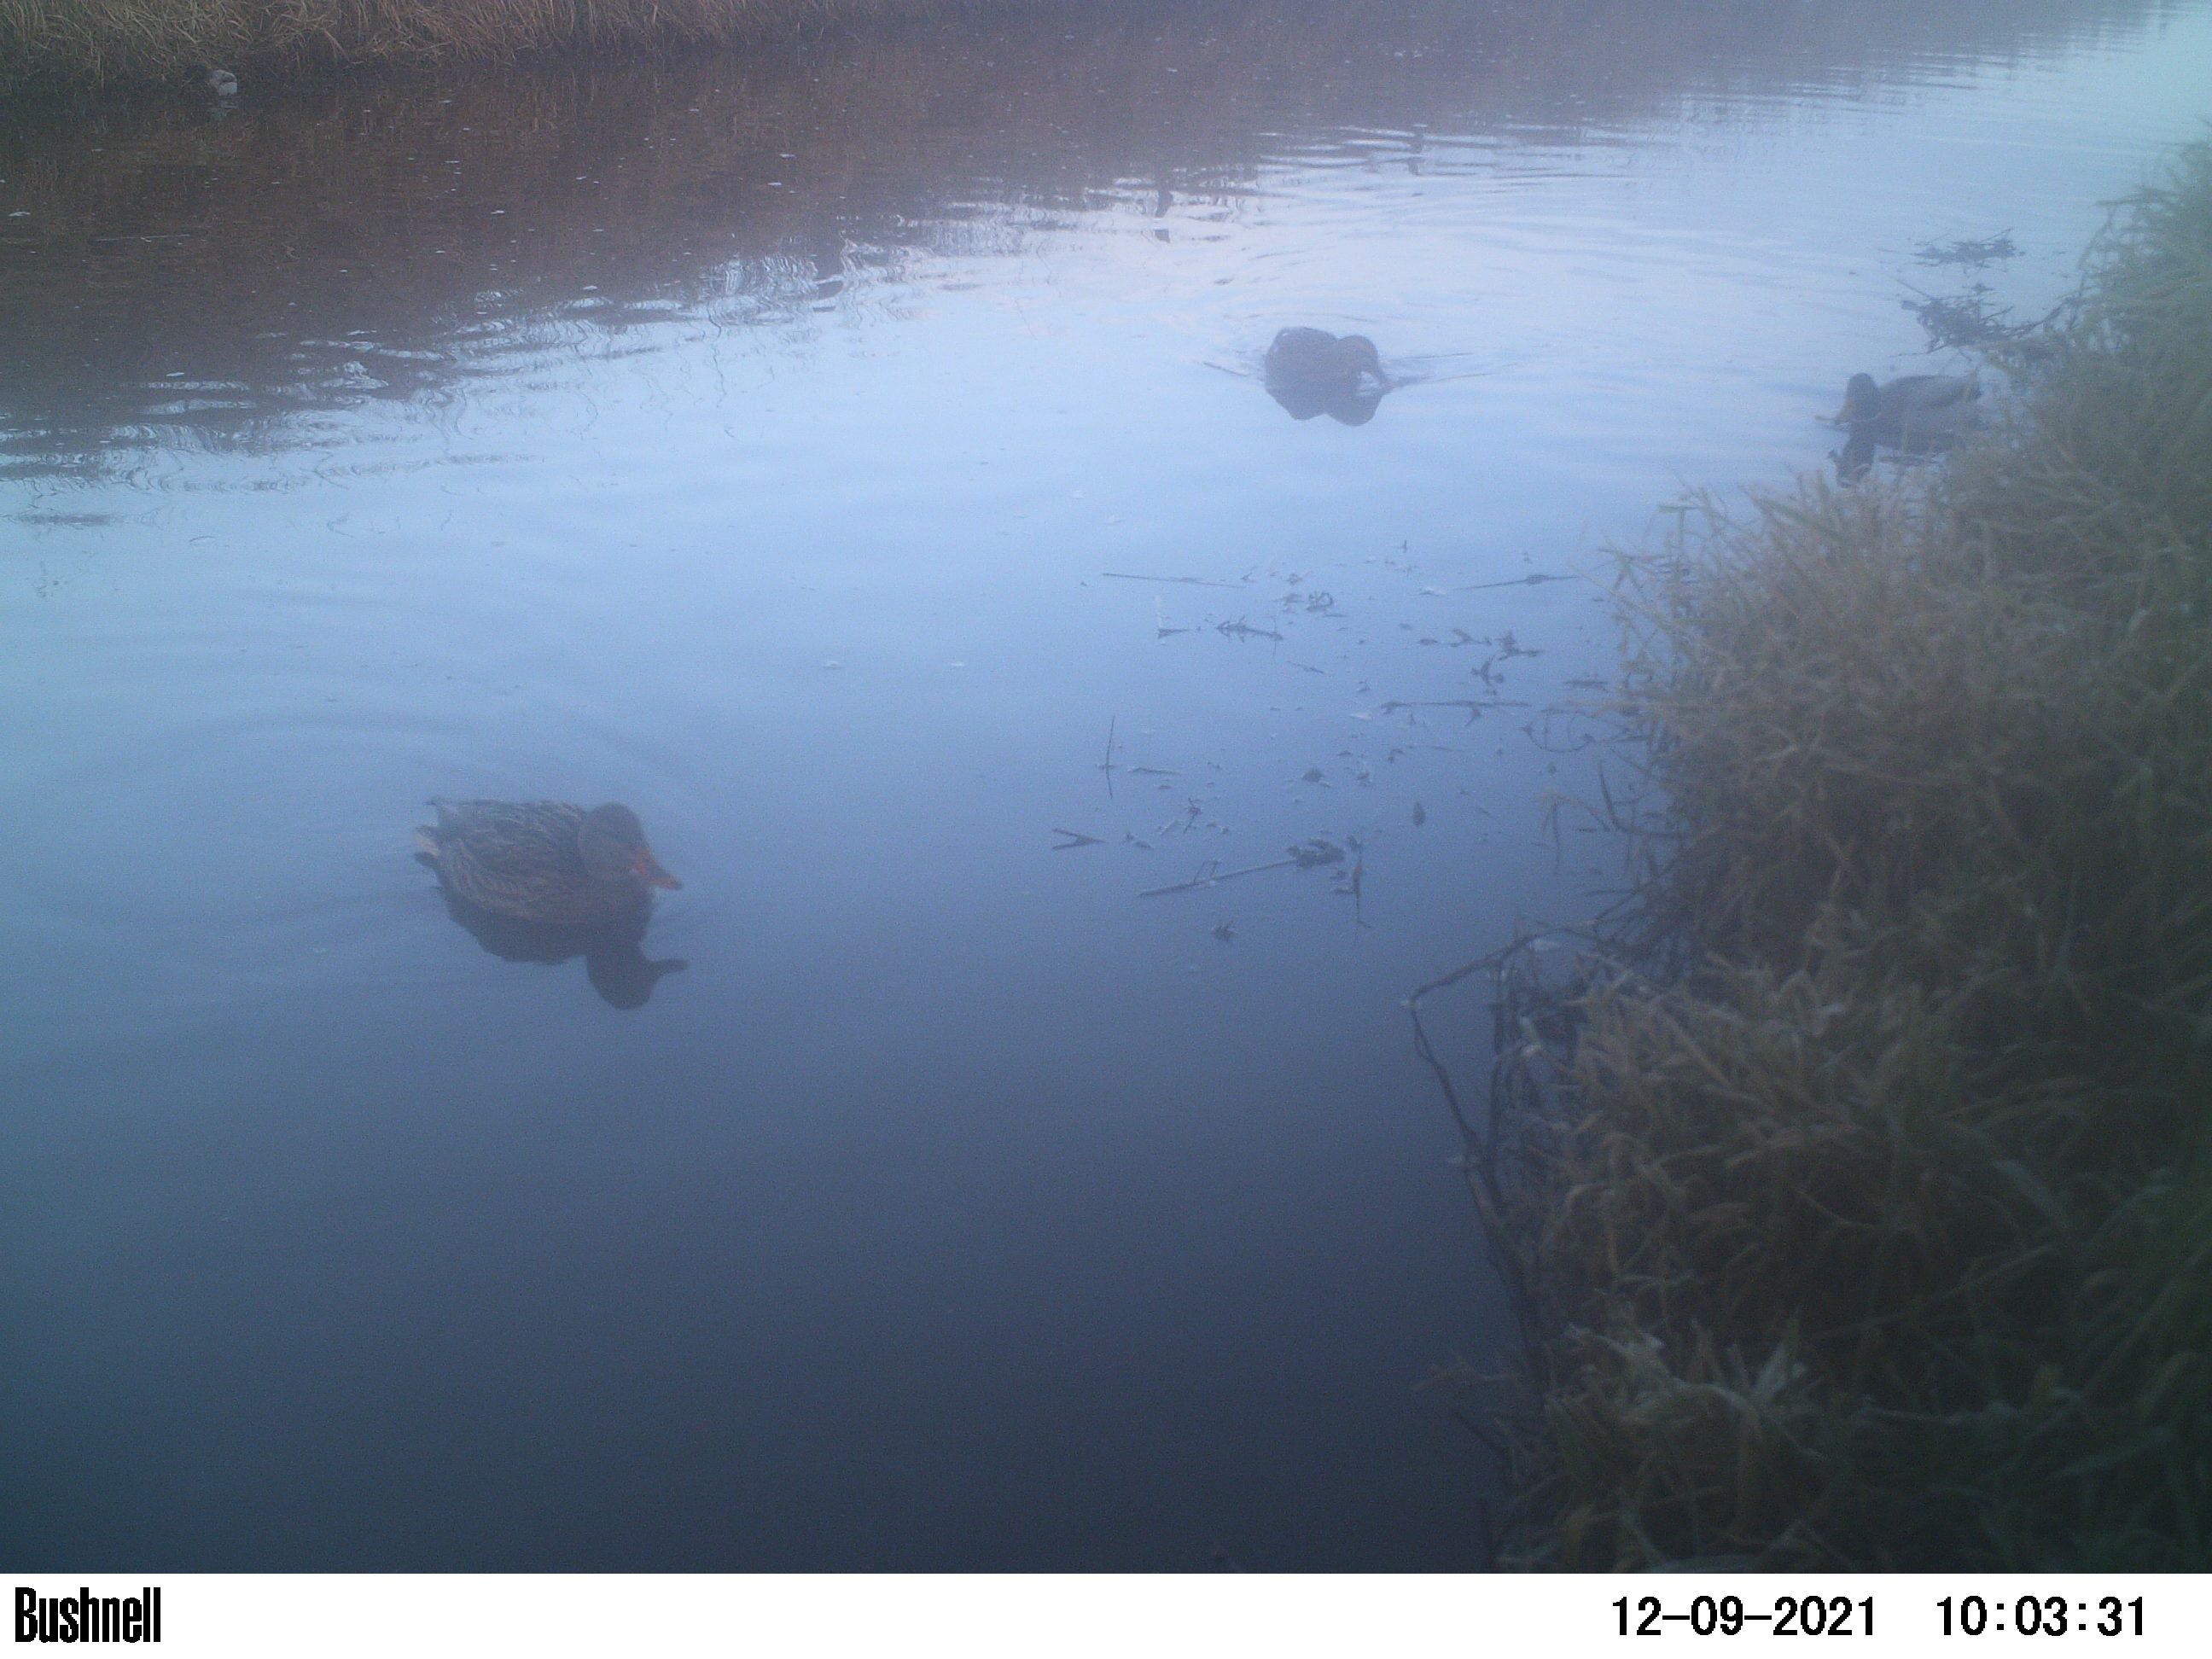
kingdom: Animalia
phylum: Chordata
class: Aves
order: Anseriformes
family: Anatidae
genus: Anas
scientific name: Anas
